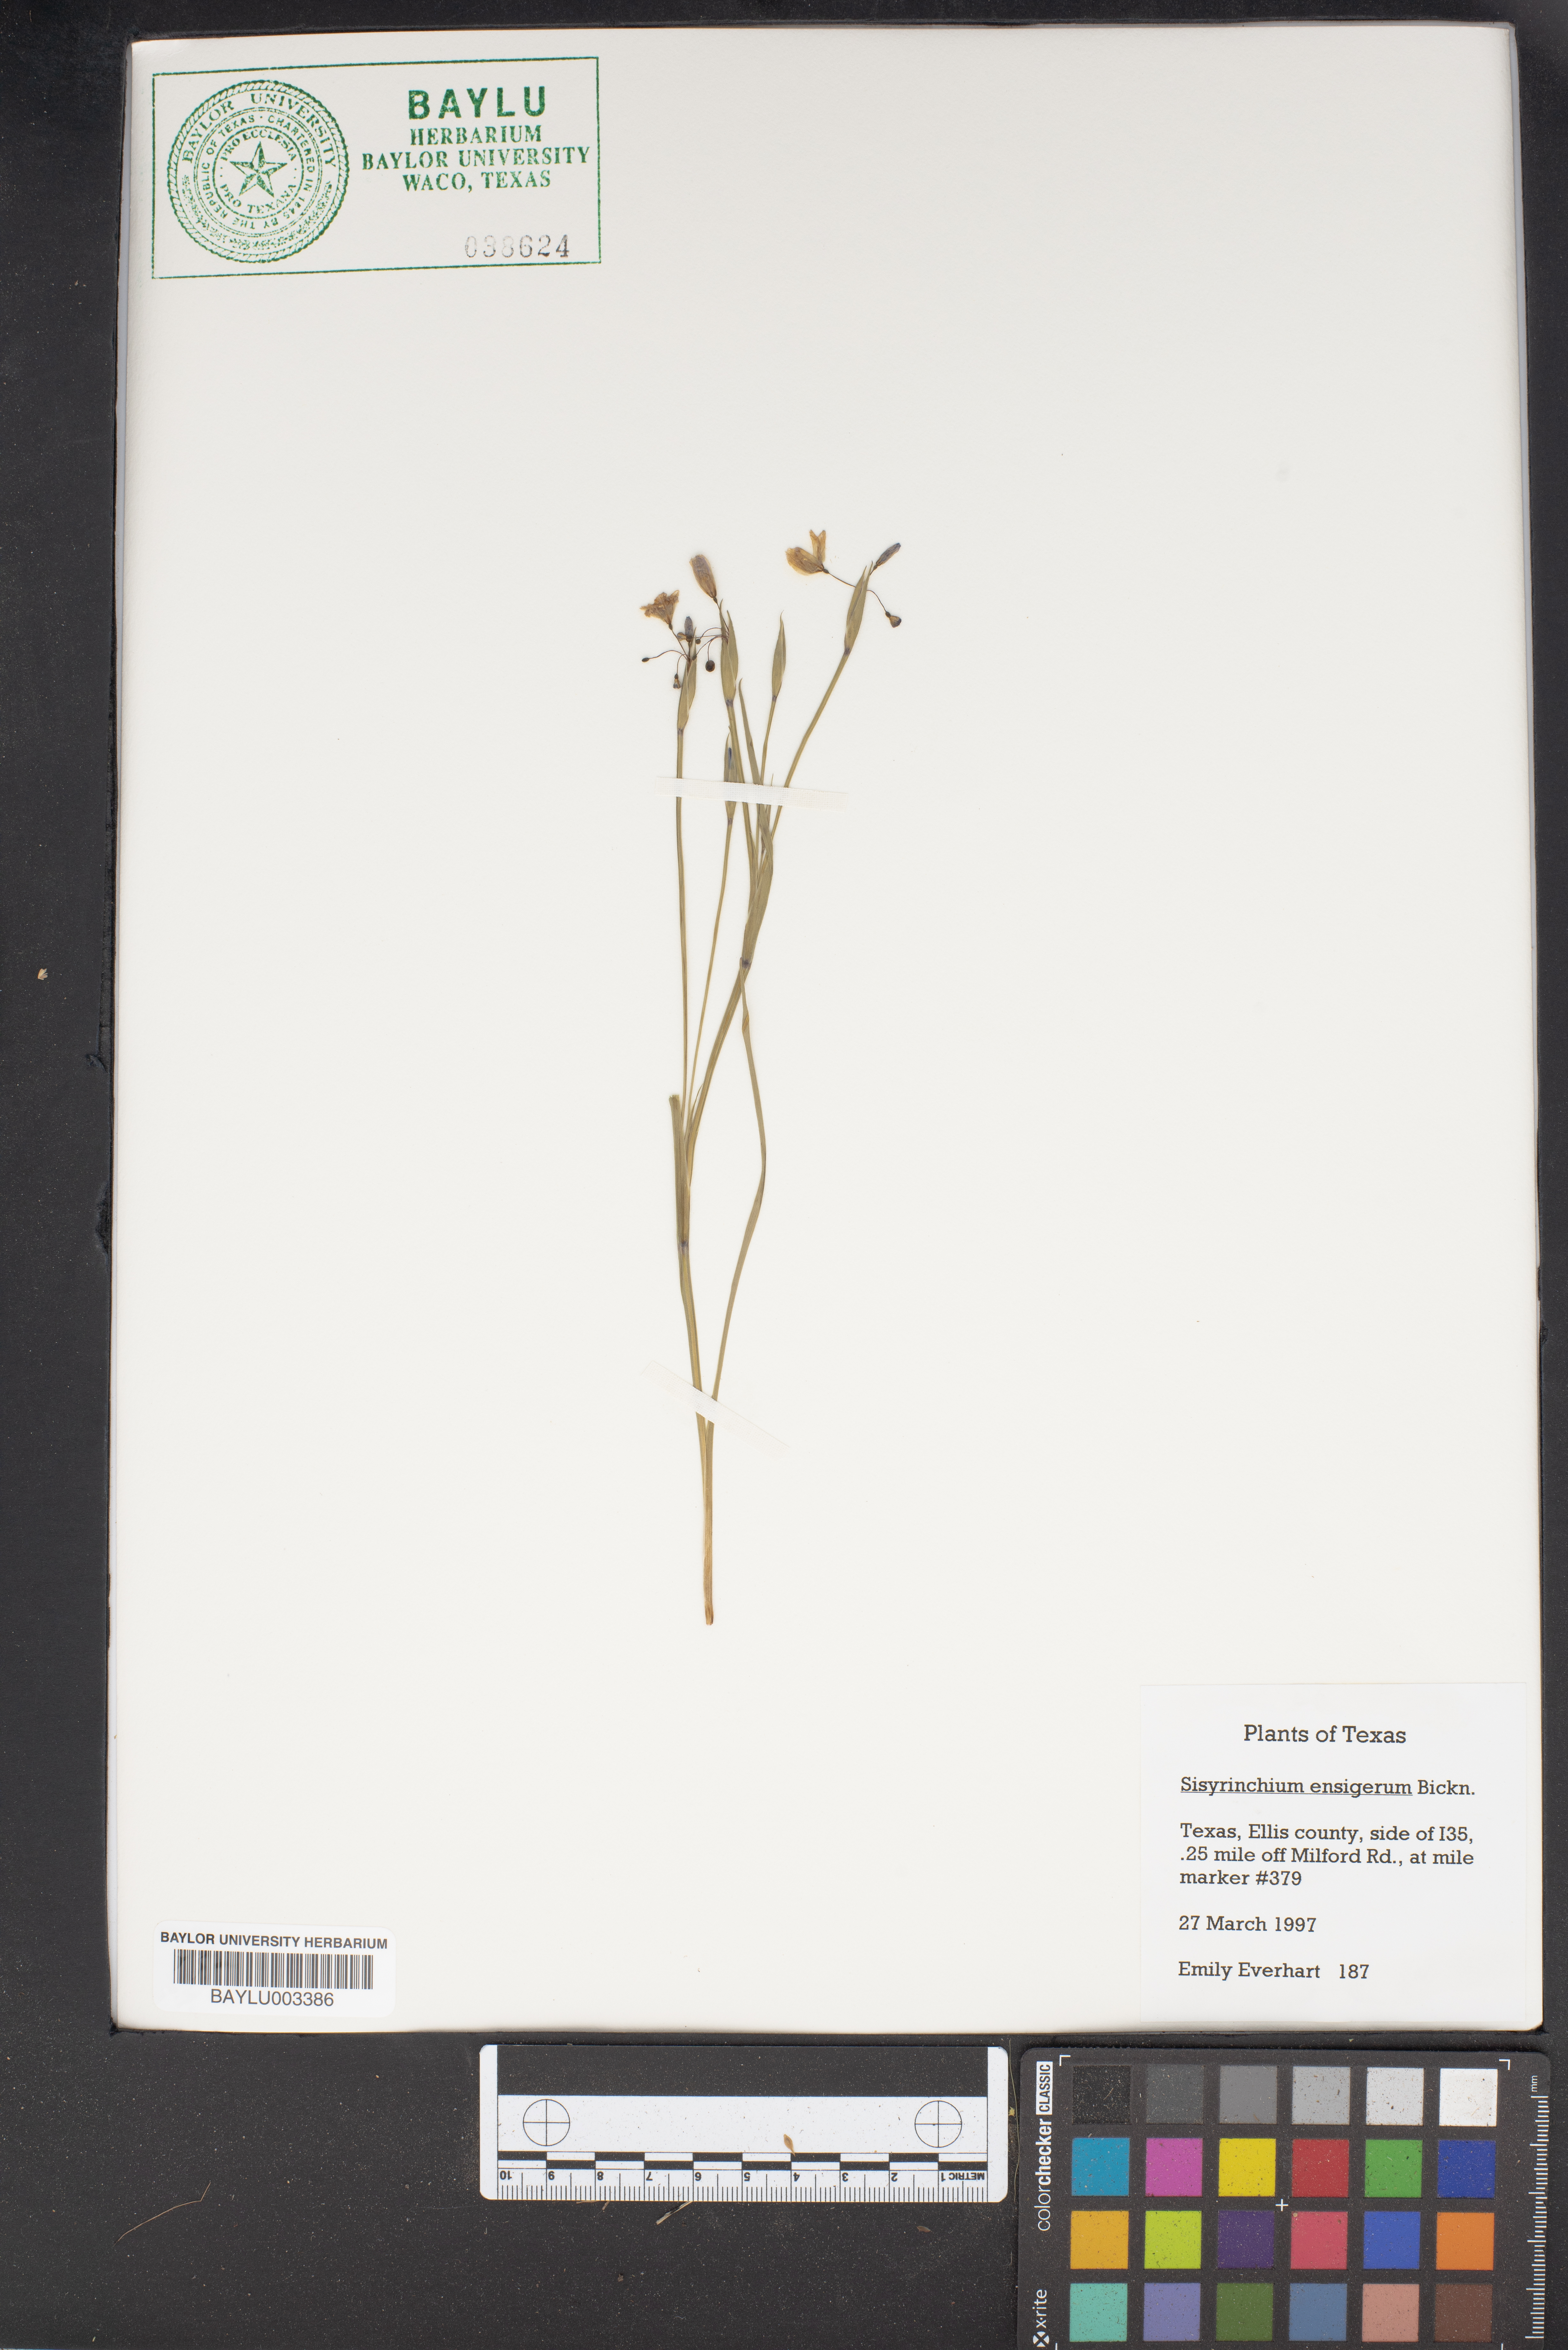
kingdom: Plantae
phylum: Tracheophyta
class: Liliopsida
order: Asparagales
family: Iridaceae
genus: Sisyrinchium
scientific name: Sisyrinchium ensigerum
